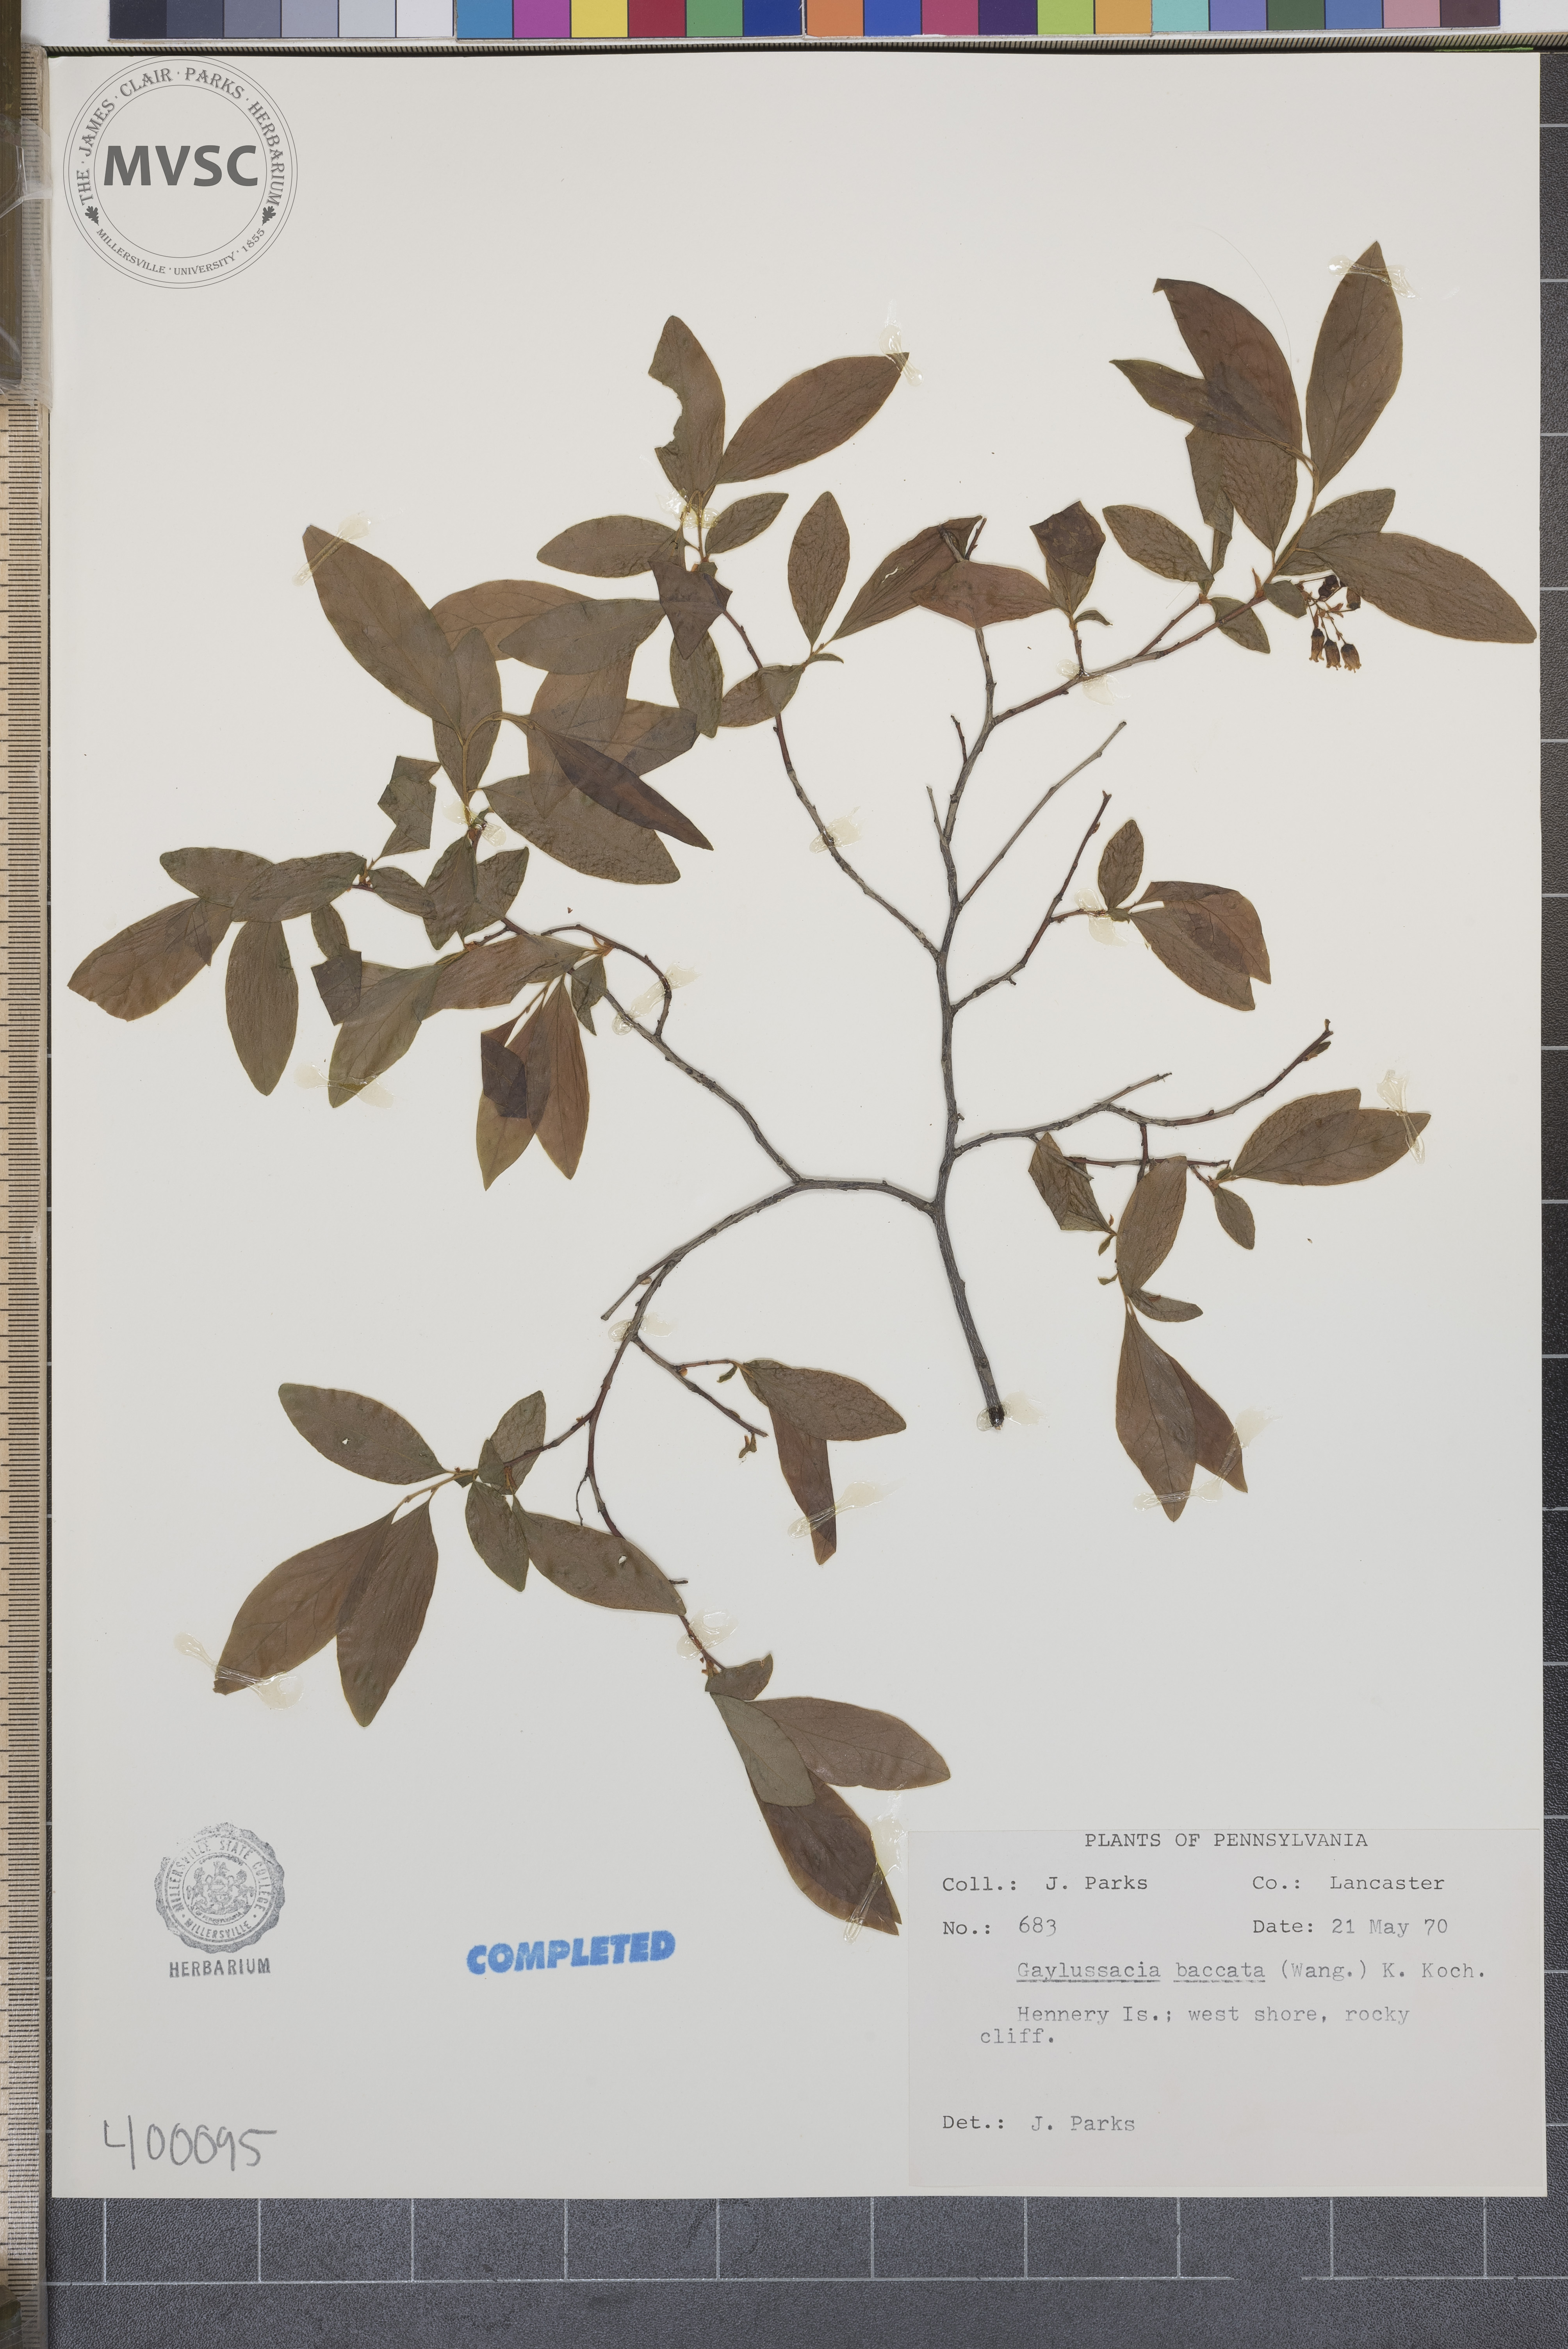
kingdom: Plantae
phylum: Tracheophyta
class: Magnoliopsida
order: Ericales
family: Ericaceae
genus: Gaylussacia
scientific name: Gaylussacia baccata
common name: Black huckleberry
